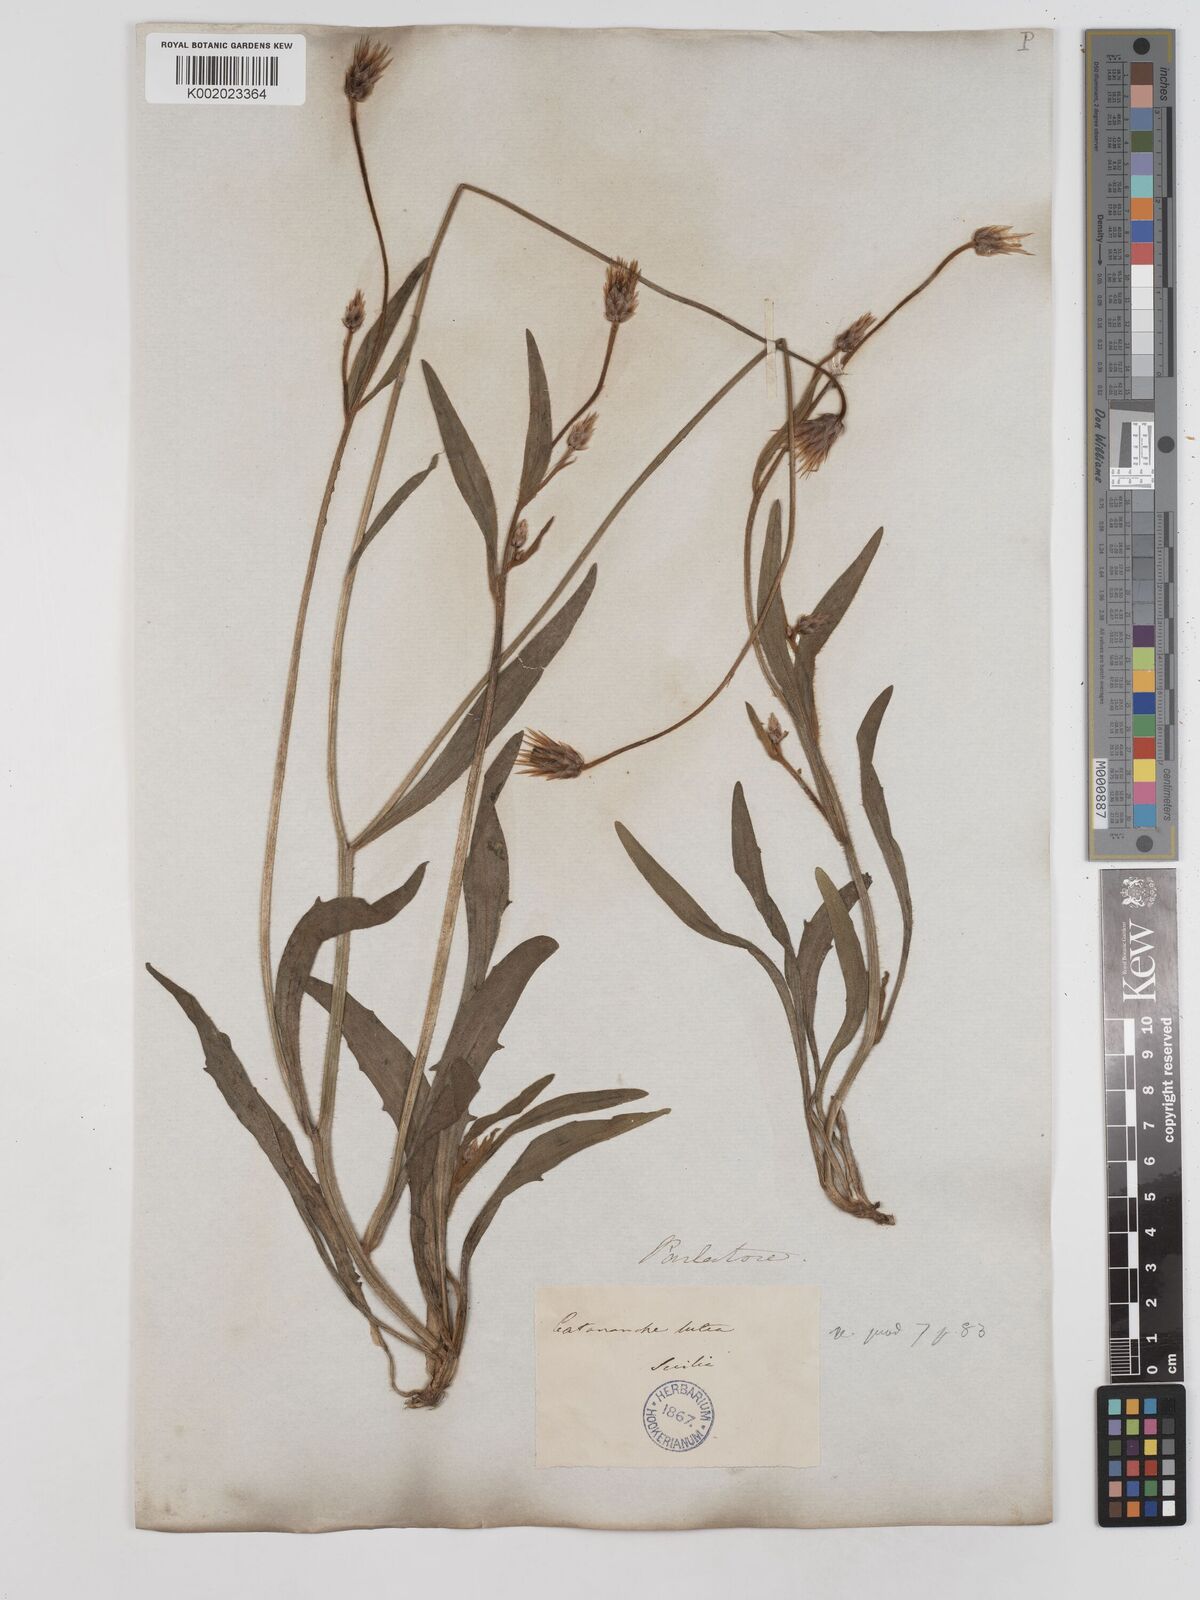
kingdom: Plantae
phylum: Tracheophyta
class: Magnoliopsida
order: Asterales
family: Asteraceae
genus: Catananche
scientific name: Catananche lutea
